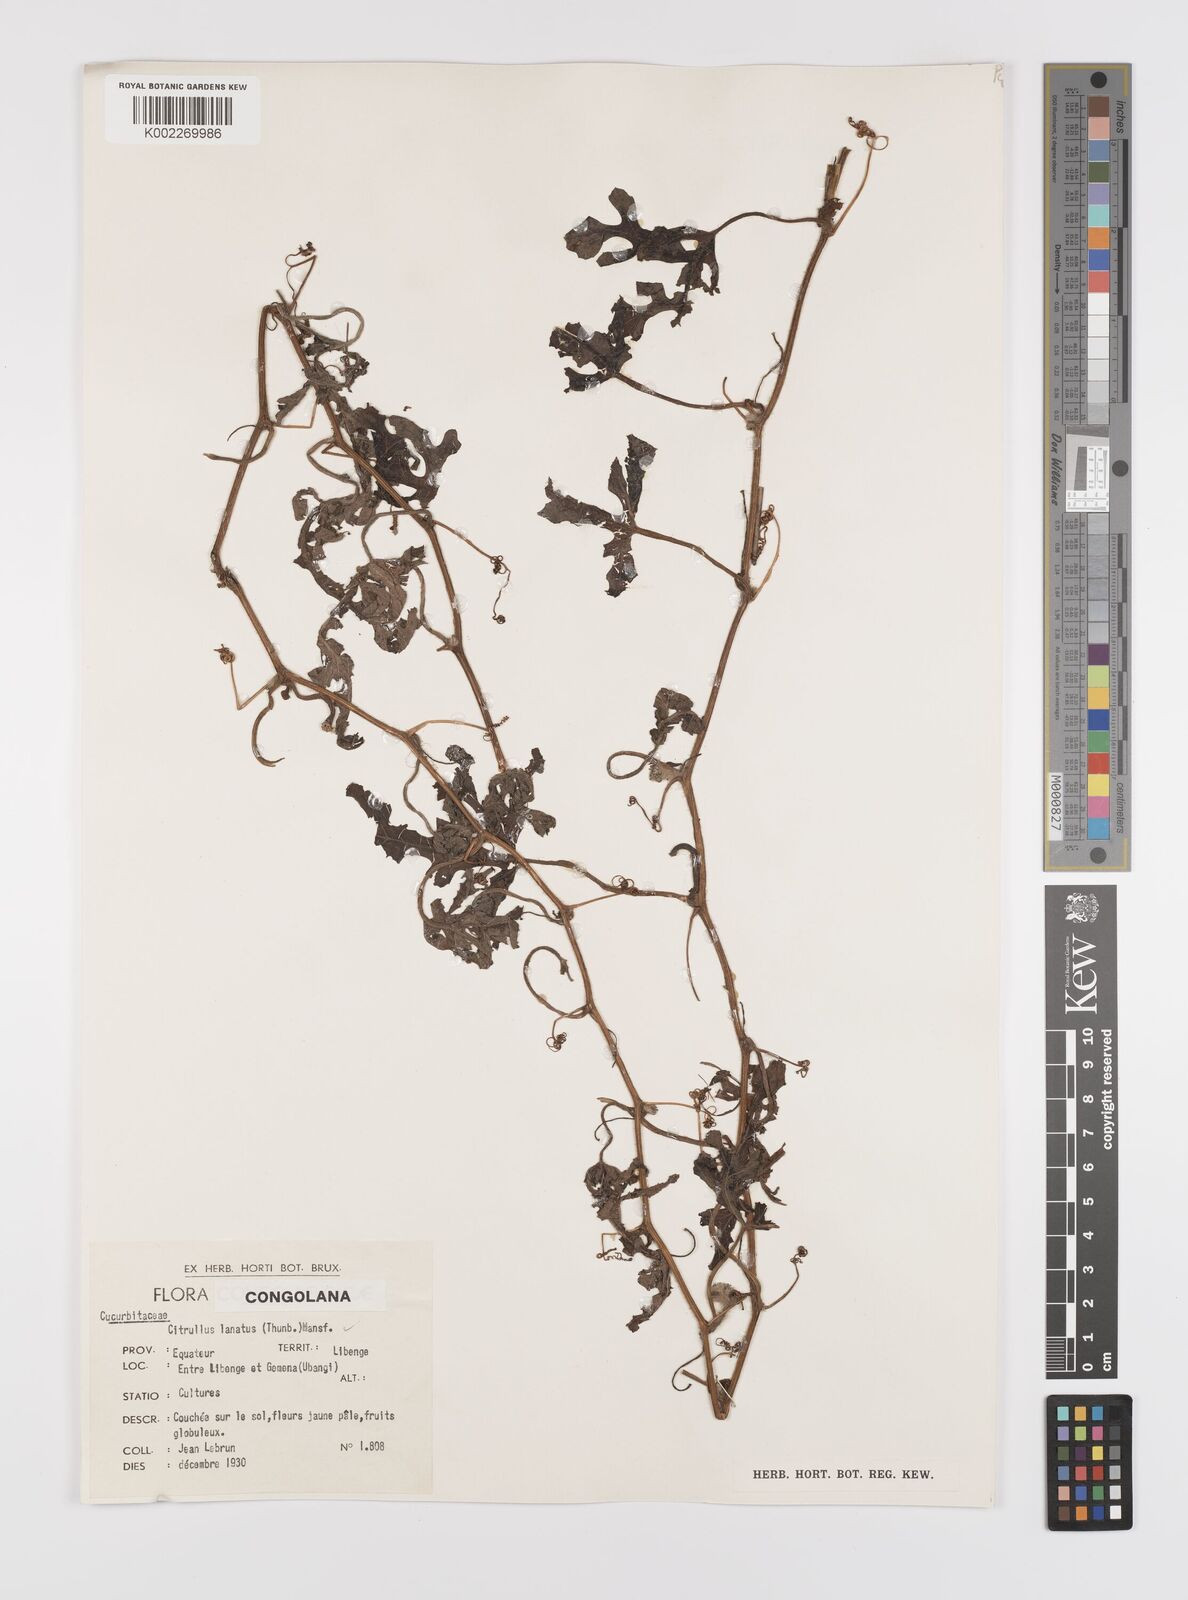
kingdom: Plantae
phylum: Tracheophyta
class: Magnoliopsida
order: Cucurbitales
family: Cucurbitaceae
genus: Citrullus
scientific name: Citrullus lanatus
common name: Watermelon
